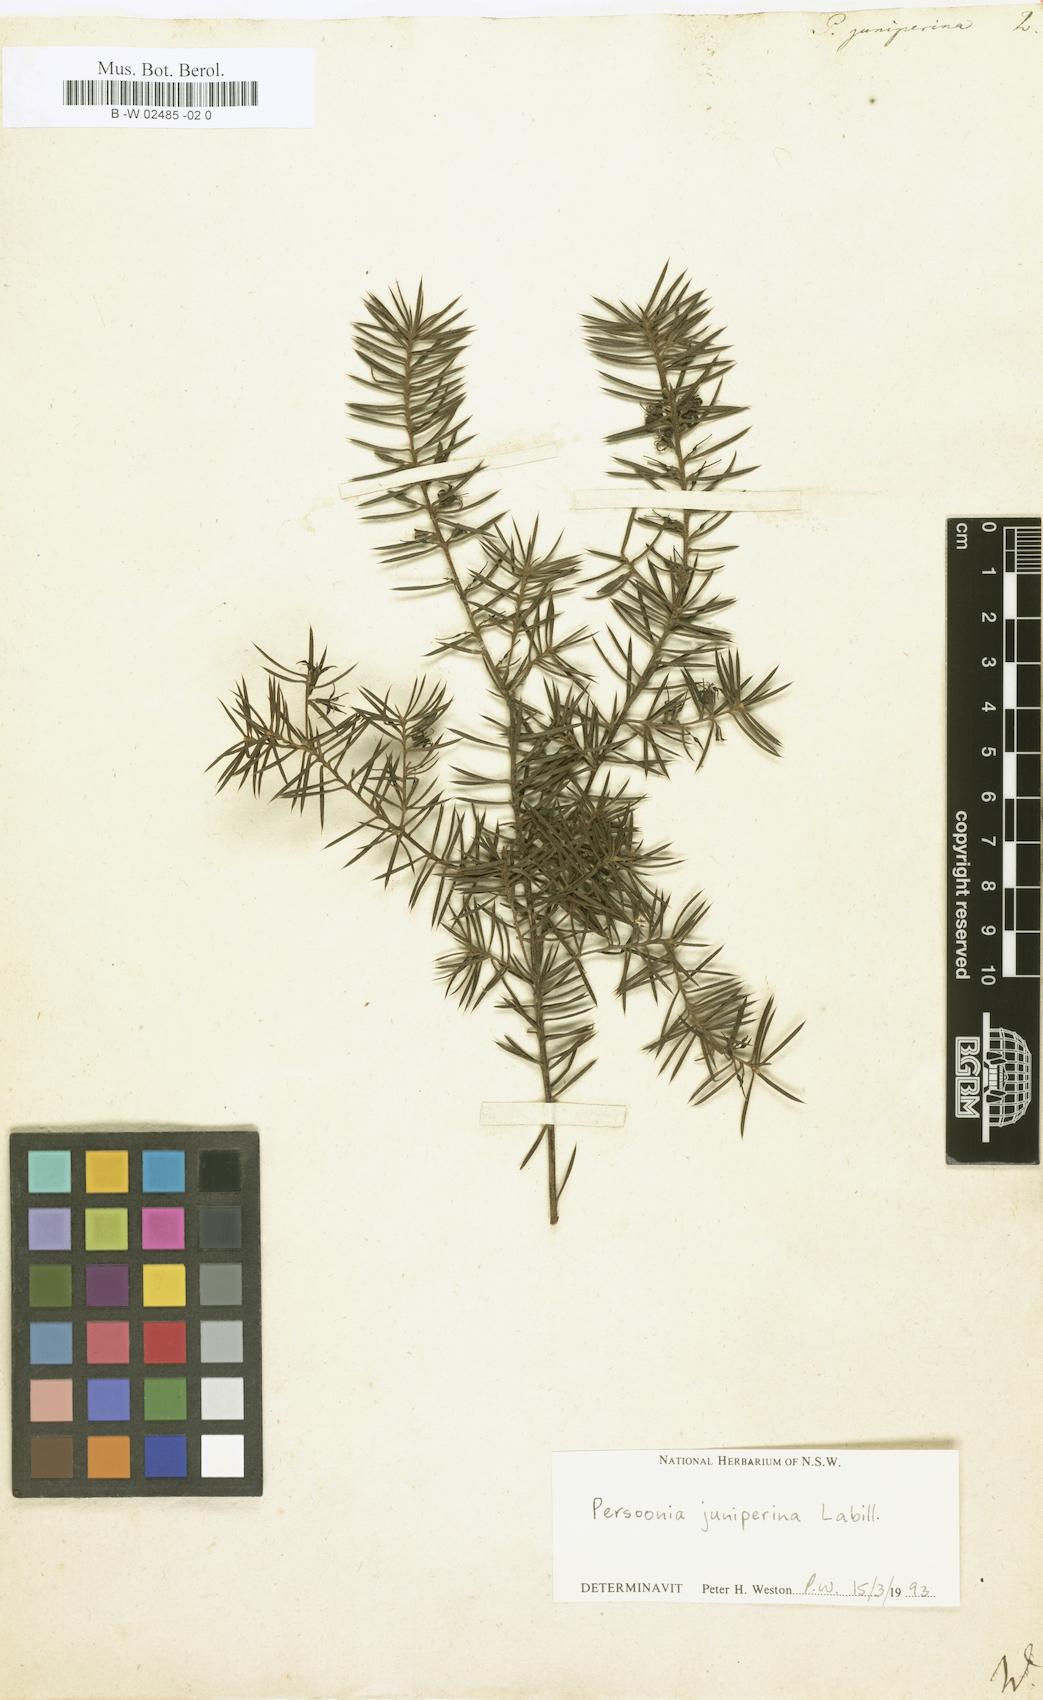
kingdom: Plantae
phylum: Tracheophyta
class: Magnoliopsida
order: Proteales
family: Proteaceae
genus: Persoonia
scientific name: Persoonia juniperina
